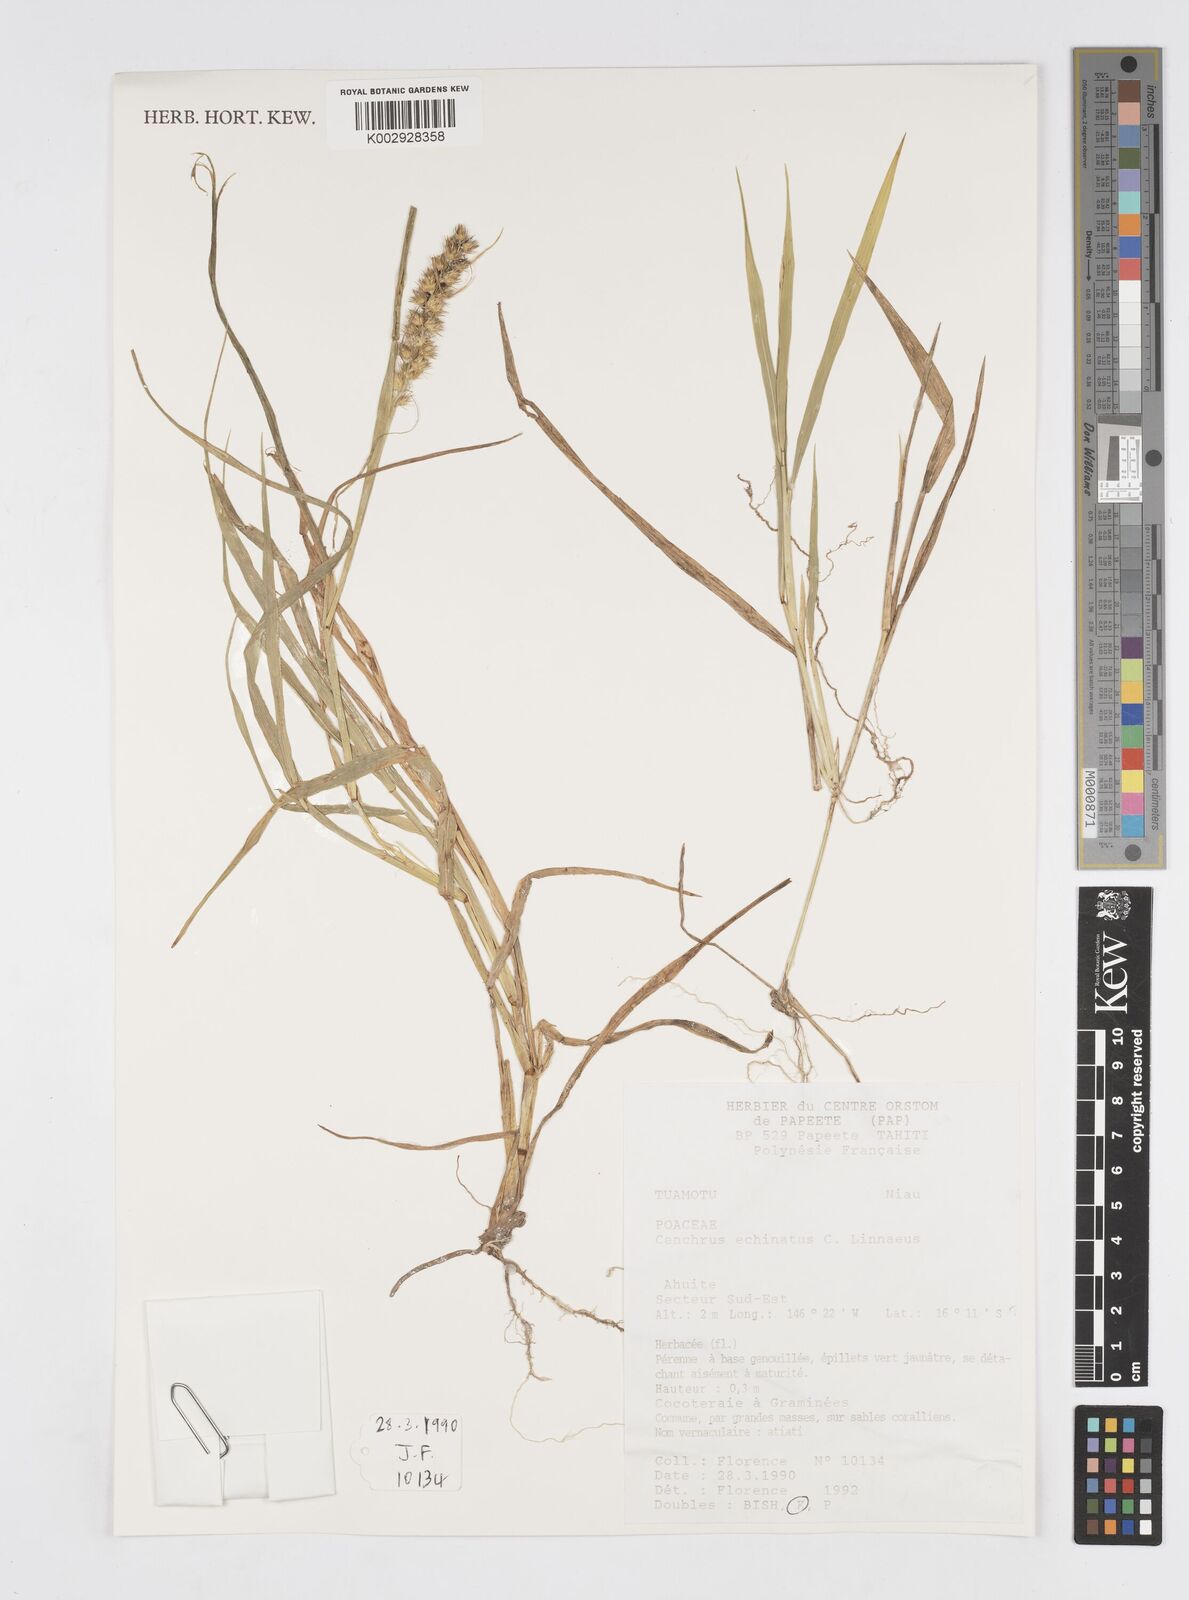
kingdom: Plantae
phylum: Tracheophyta
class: Liliopsida
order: Poales
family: Poaceae
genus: Cenchrus
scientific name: Cenchrus echinatus
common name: Southern sandbur
